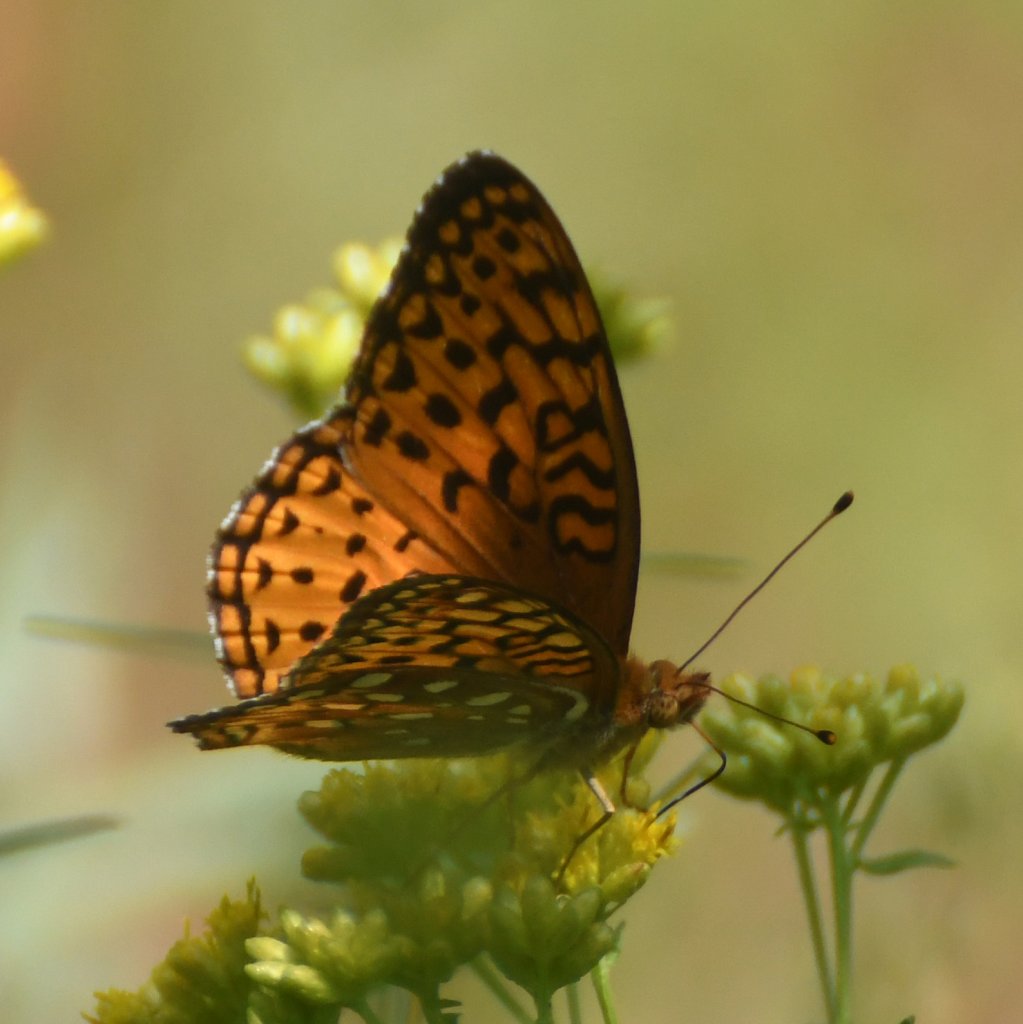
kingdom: Animalia
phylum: Arthropoda
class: Insecta
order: Lepidoptera
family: Nymphalidae
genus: Speyeria
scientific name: Speyeria aphrodite
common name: Aphrodite Fritillary
